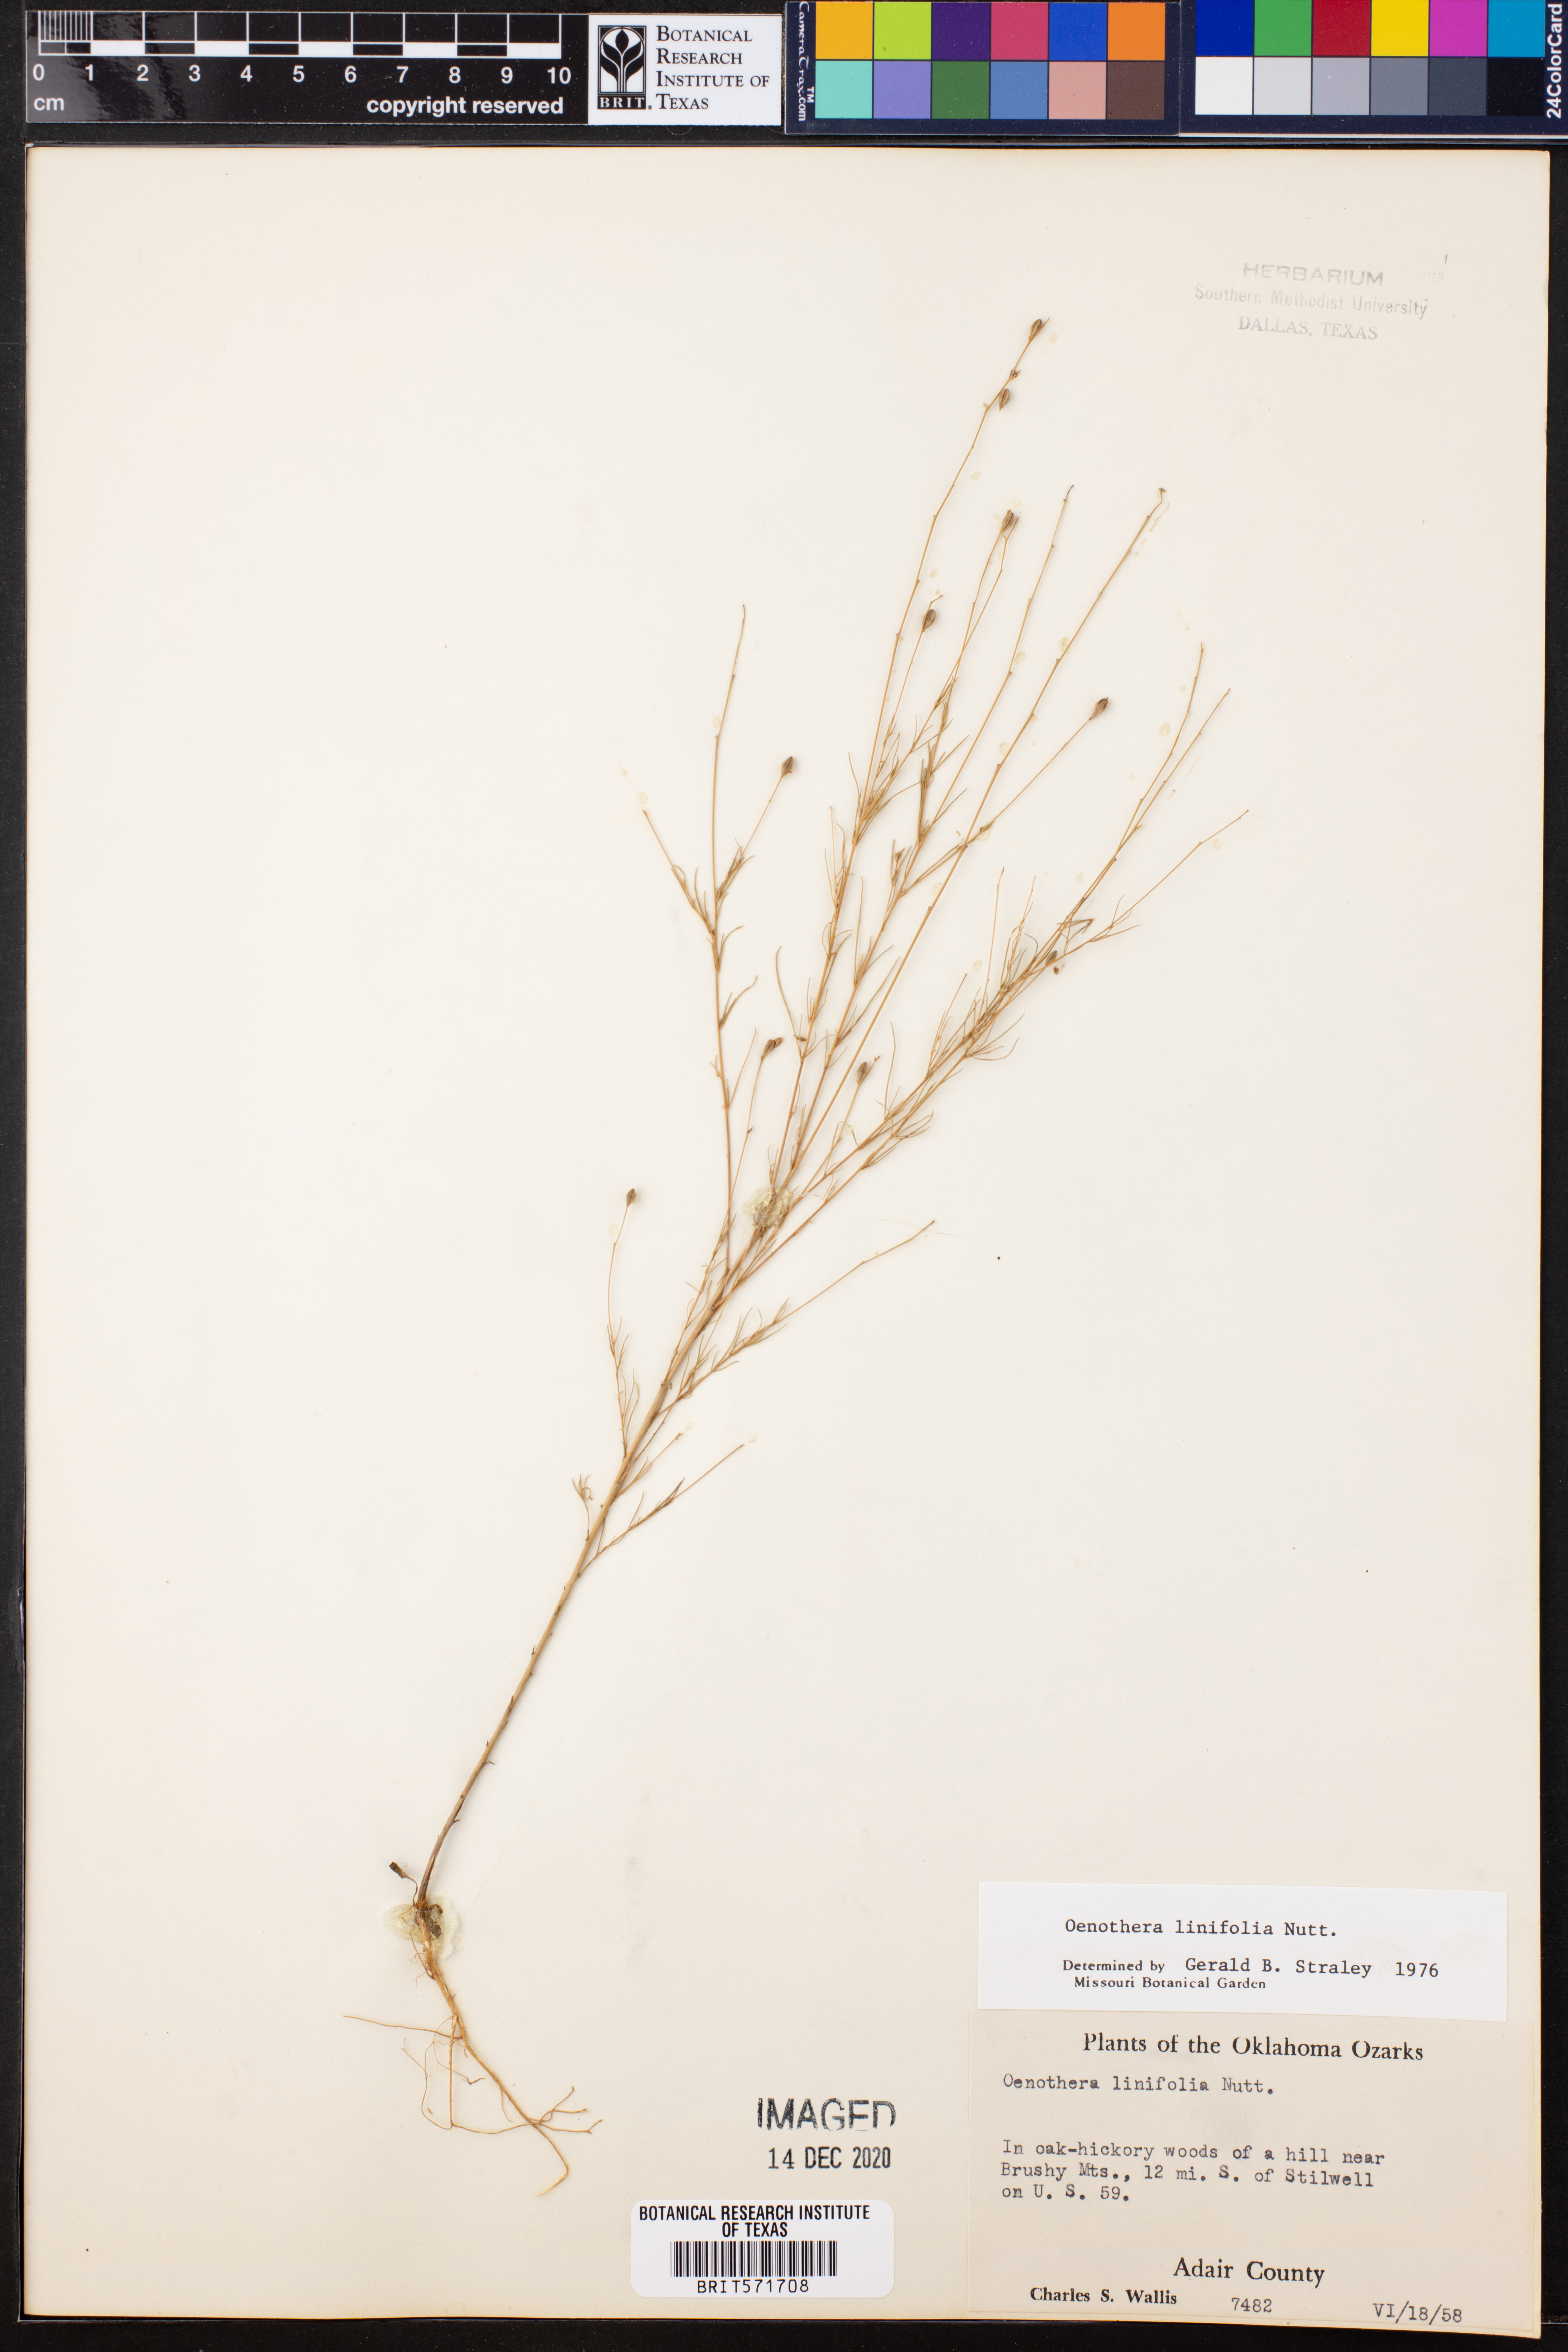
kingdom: Plantae
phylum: Tracheophyta
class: Magnoliopsida
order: Myrtales
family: Onagraceae
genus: Oenothera
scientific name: Oenothera linifolia
